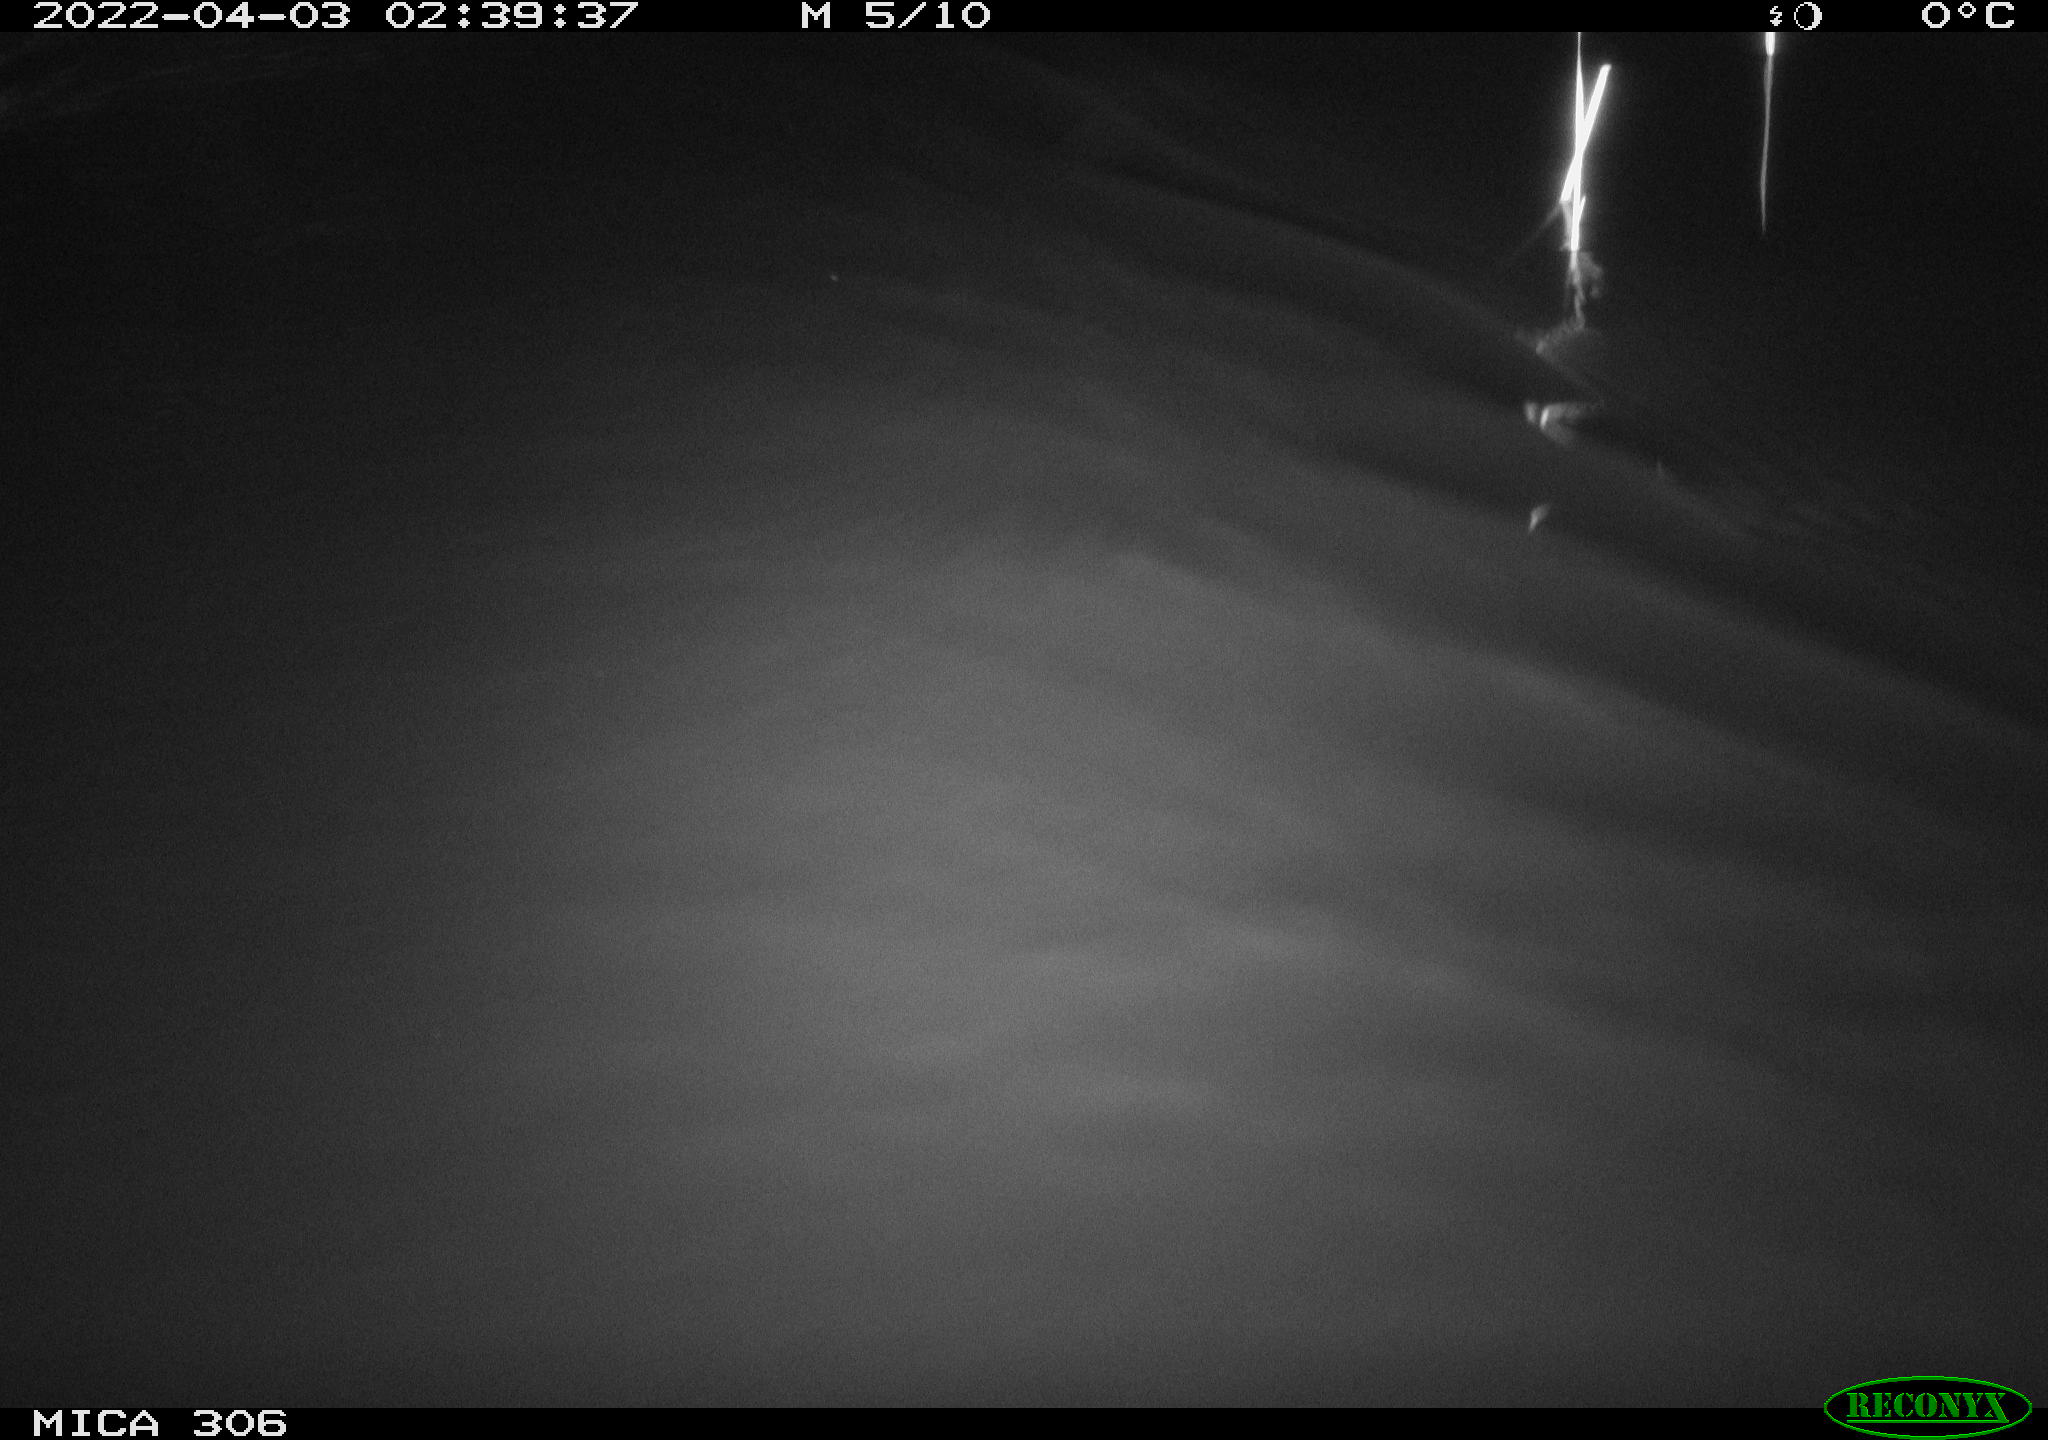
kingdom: Animalia
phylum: Chordata
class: Aves
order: Anseriformes
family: Anatidae
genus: Anas
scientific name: Anas platyrhynchos
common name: Mallard
